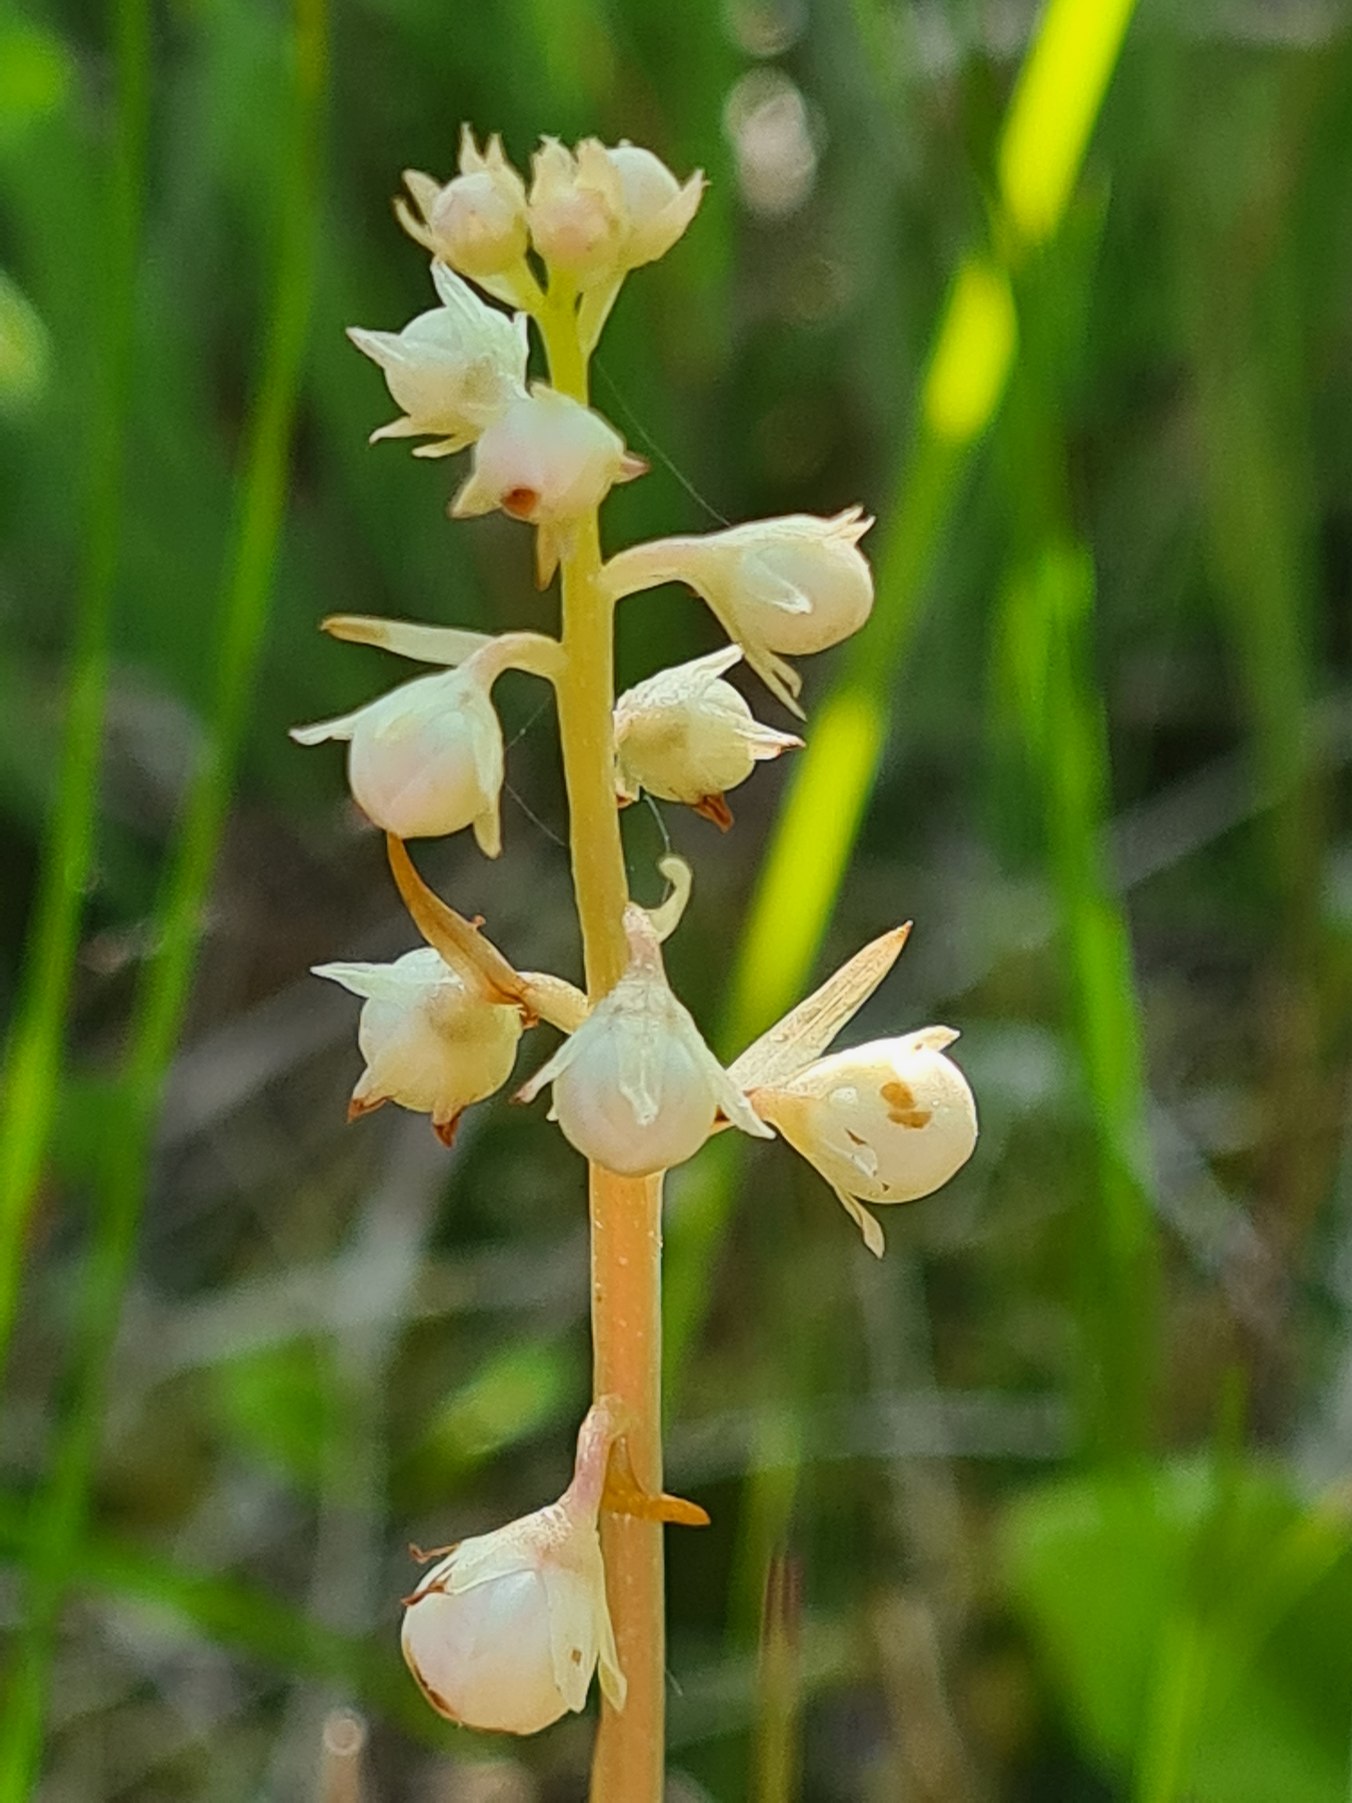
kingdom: Plantae
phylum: Tracheophyta
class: Magnoliopsida
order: Ericales
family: Ericaceae
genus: Pyrola
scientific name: Pyrola rotundifolia
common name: Mose-vintergrøn
